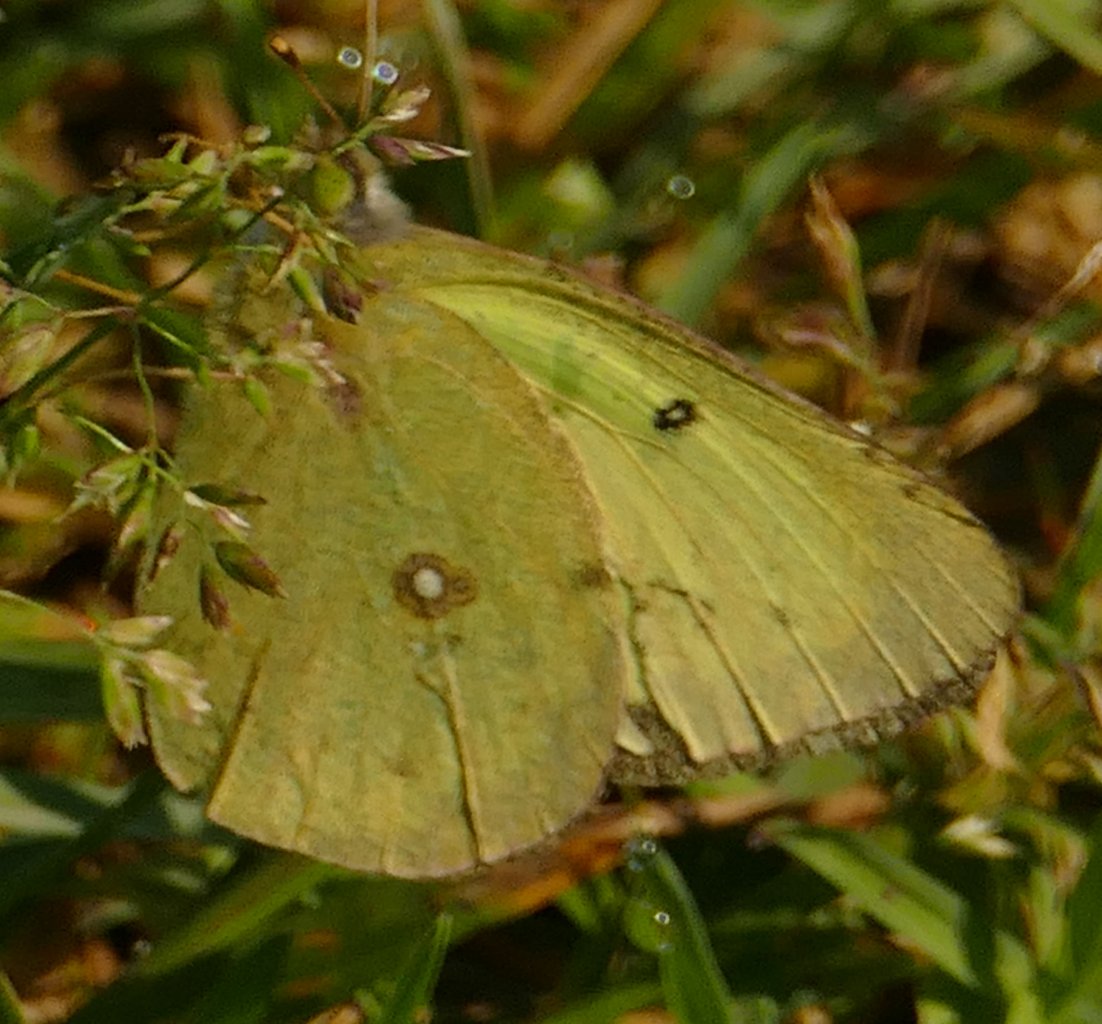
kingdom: Animalia
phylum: Arthropoda
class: Insecta
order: Lepidoptera
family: Pieridae
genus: Colias
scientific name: Colias eurytheme
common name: Orange Sulphur
